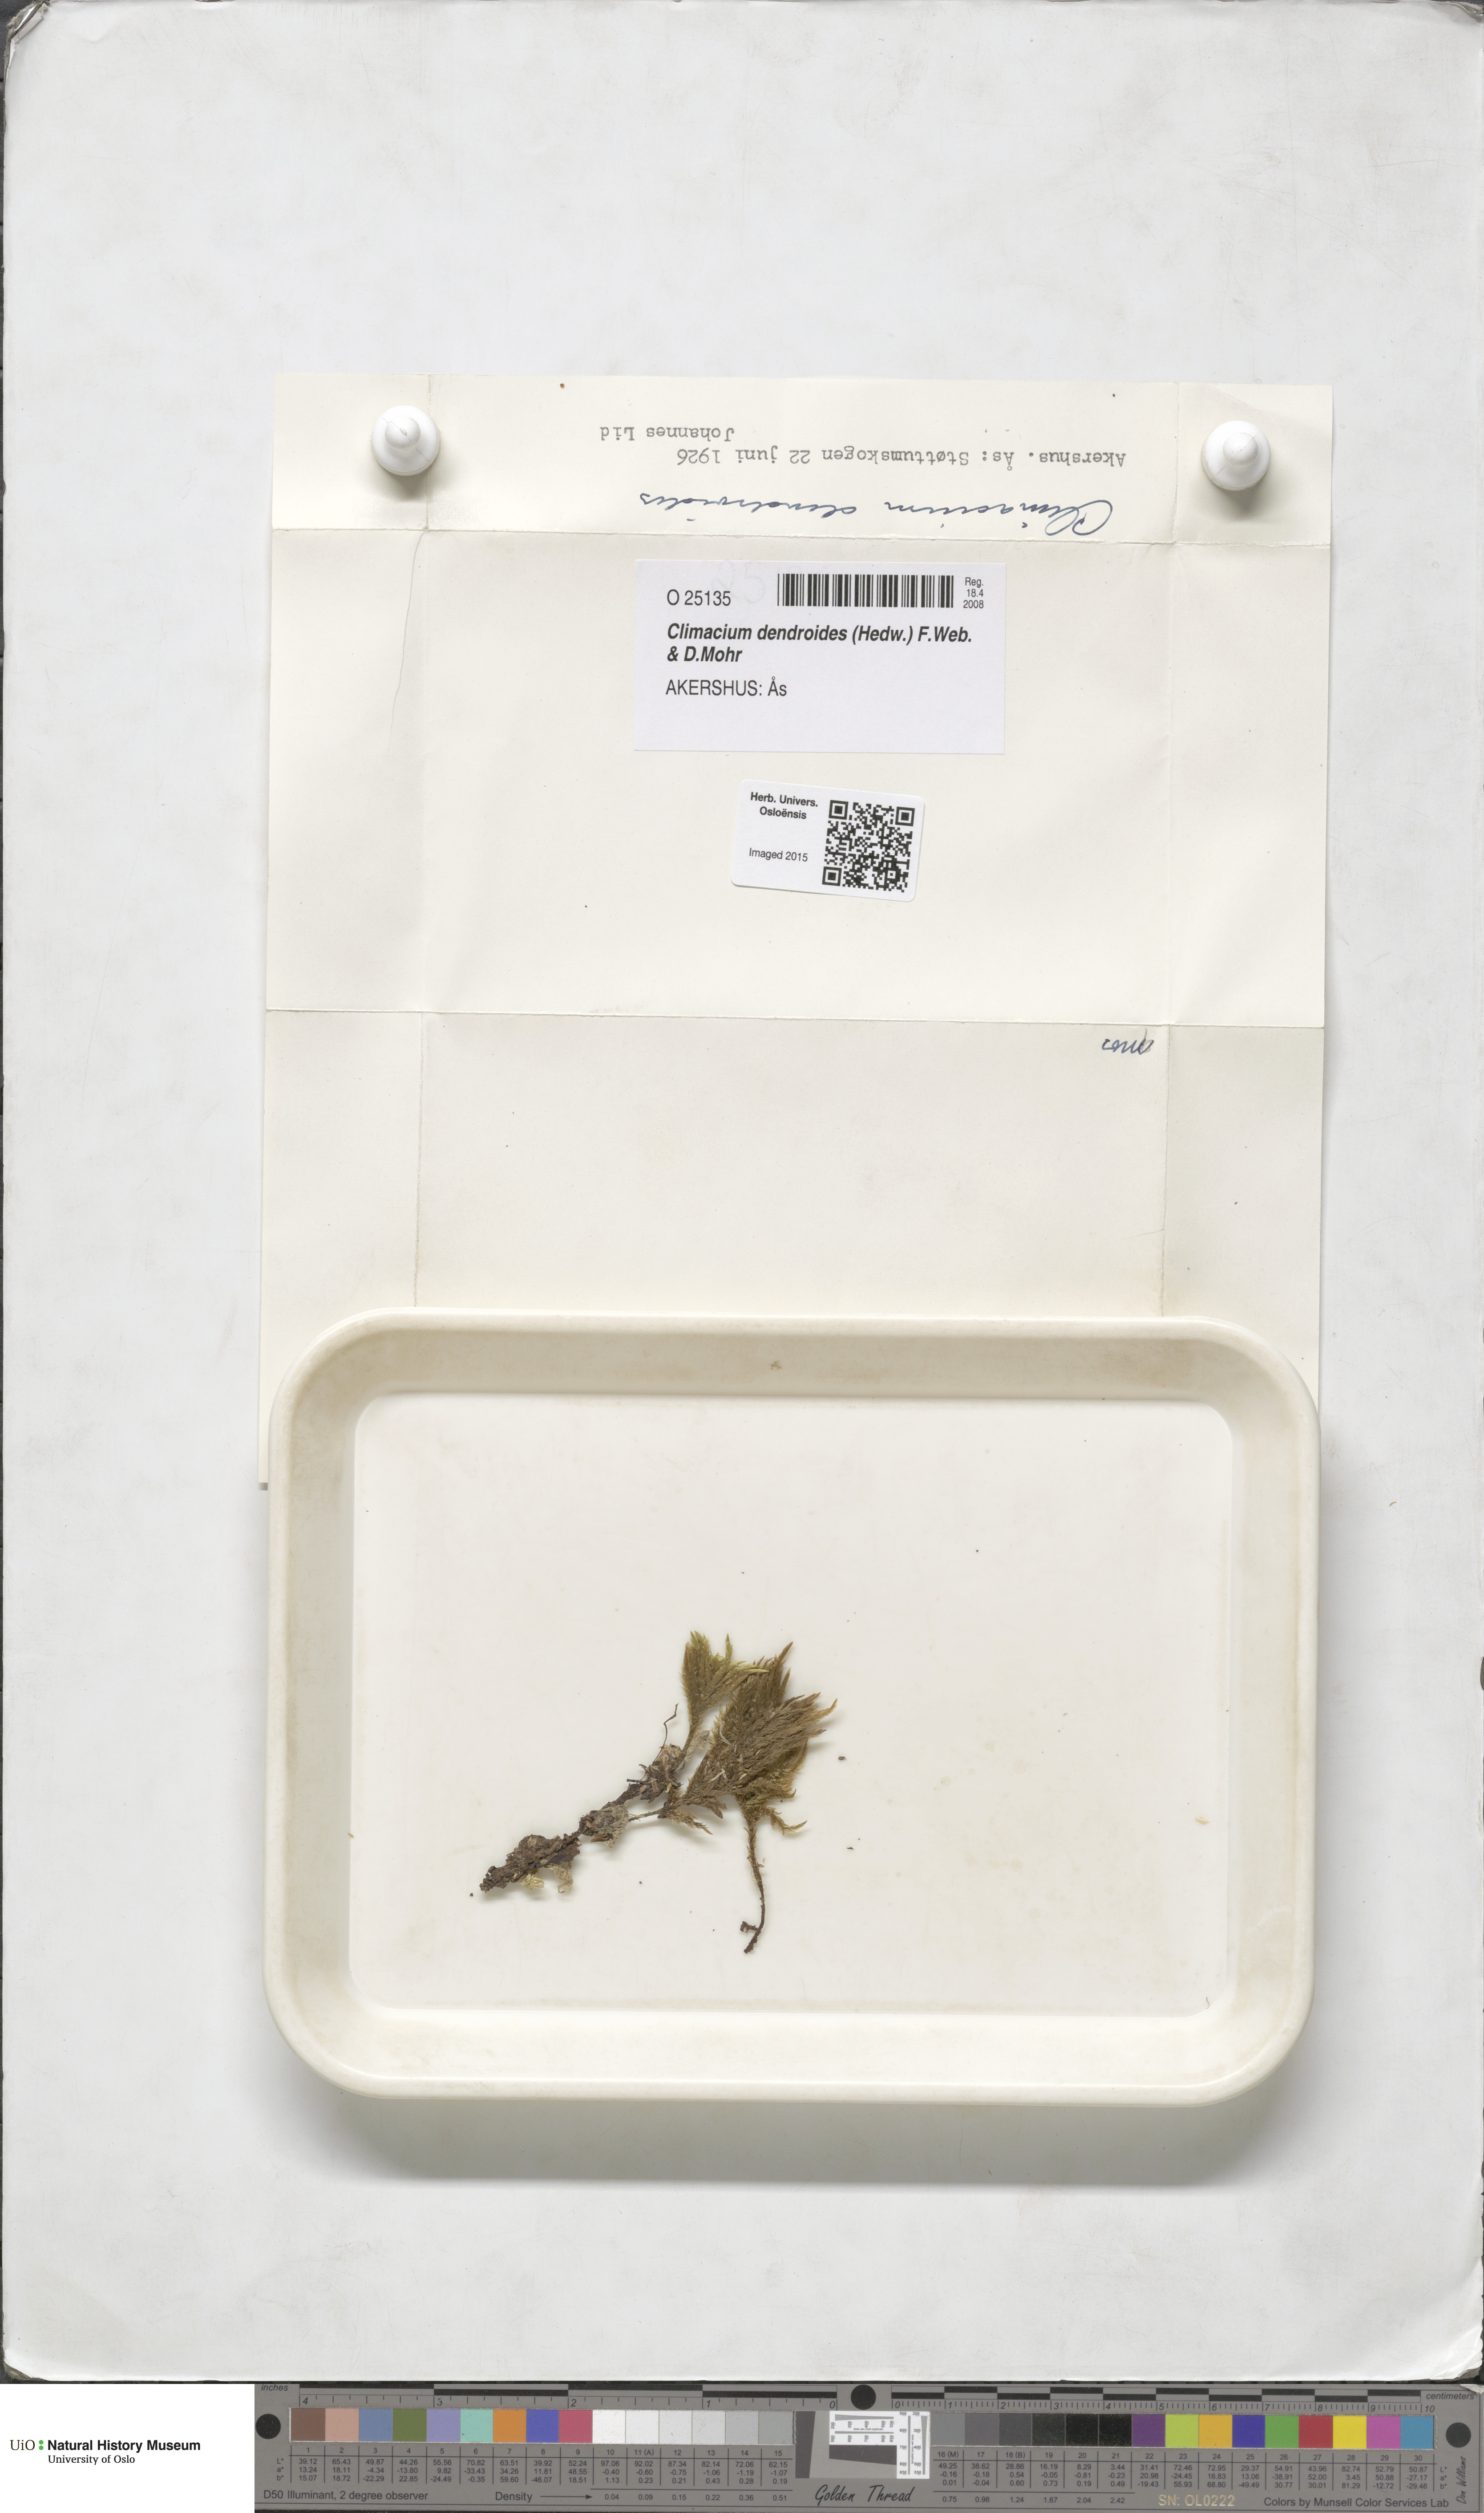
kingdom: Plantae
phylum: Bryophyta
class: Bryopsida
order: Hypnales
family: Climaciaceae
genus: Climacium
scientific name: Climacium dendroides
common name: Northern tree moss
